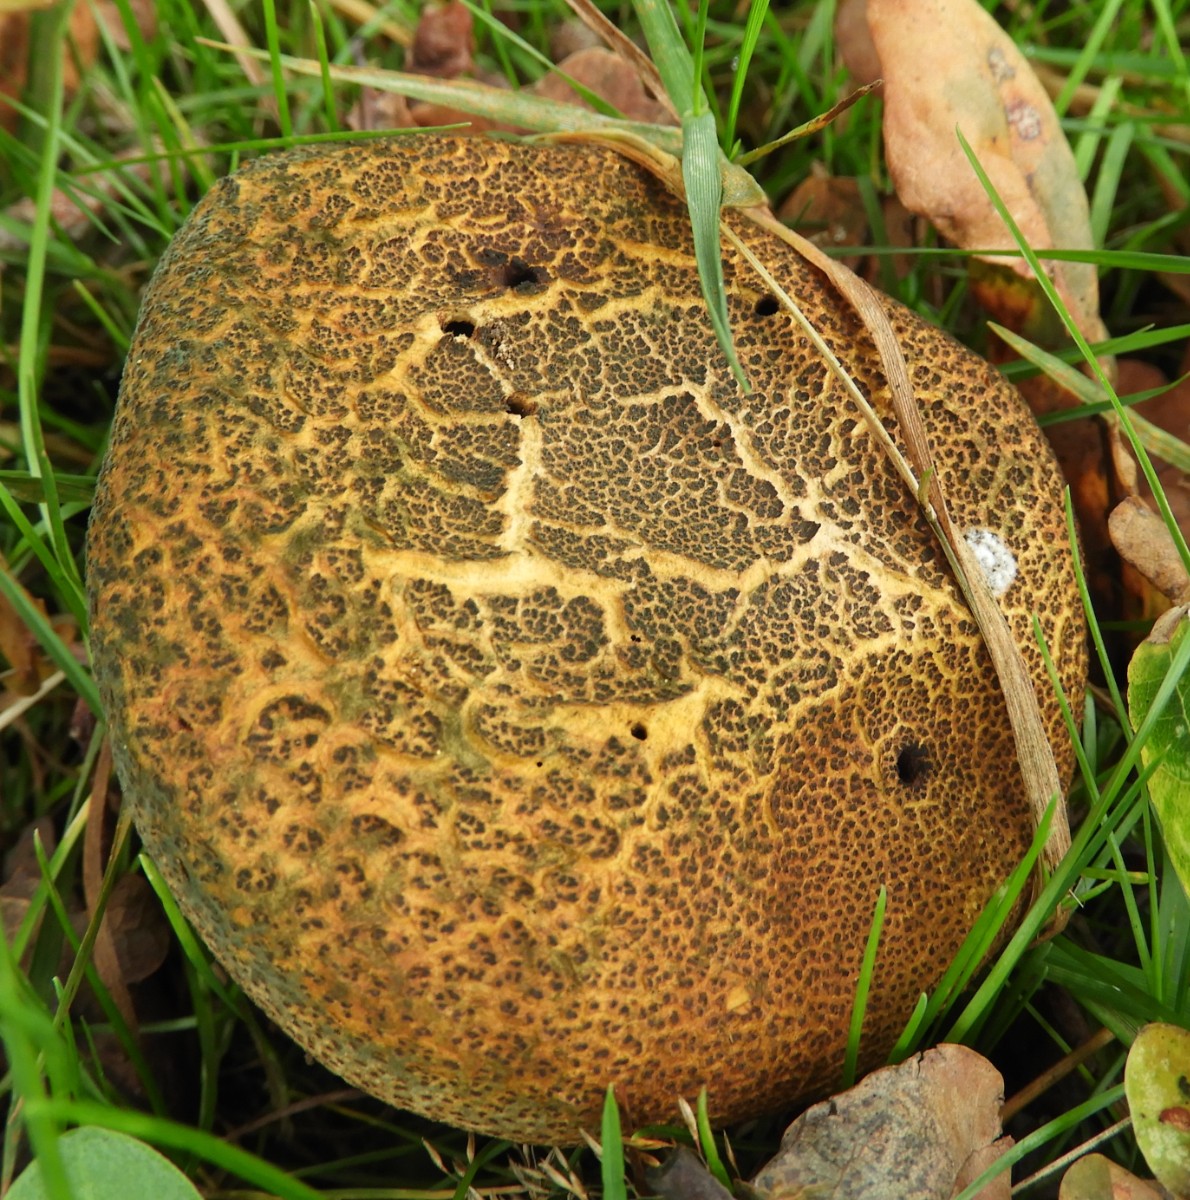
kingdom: Fungi
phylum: Basidiomycota
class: Agaricomycetes
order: Boletales
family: Sclerodermataceae
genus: Scleroderma
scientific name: Scleroderma verrucosum
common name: stilket bruskbold
